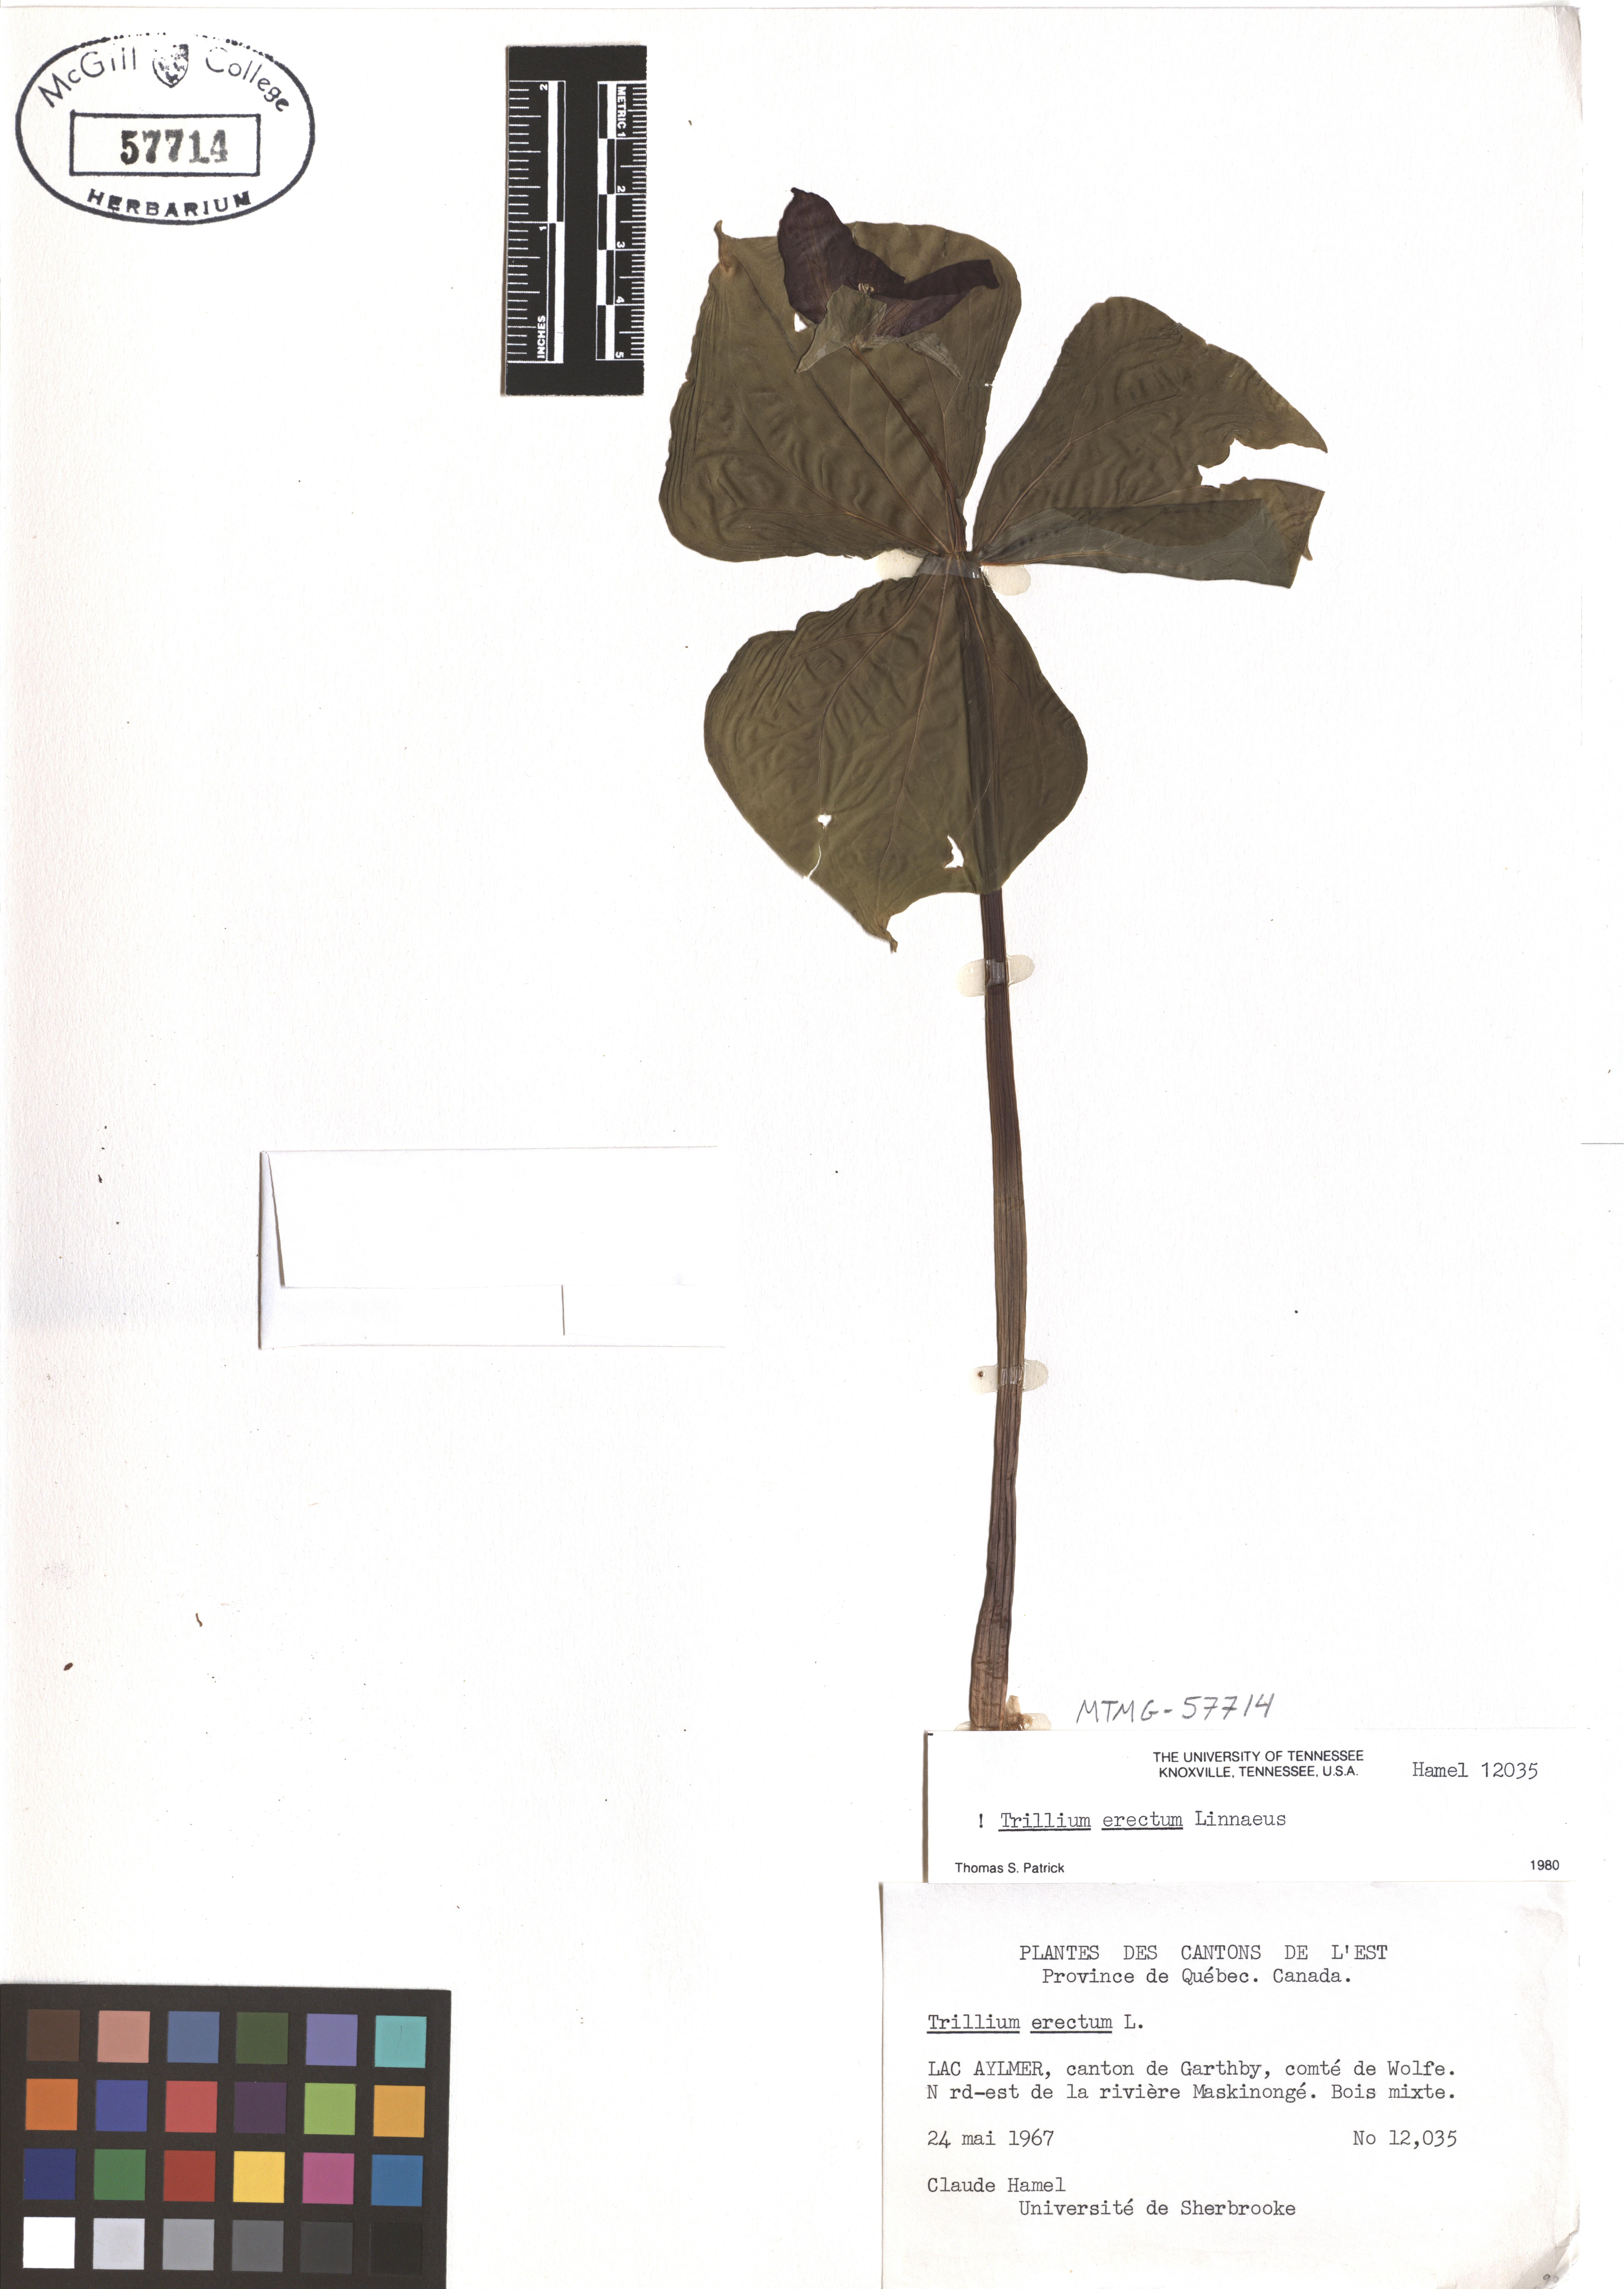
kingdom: Plantae
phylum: Tracheophyta
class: Liliopsida
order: Liliales
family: Melanthiaceae
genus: Trillium
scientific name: Trillium erectum
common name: Purple trillium
